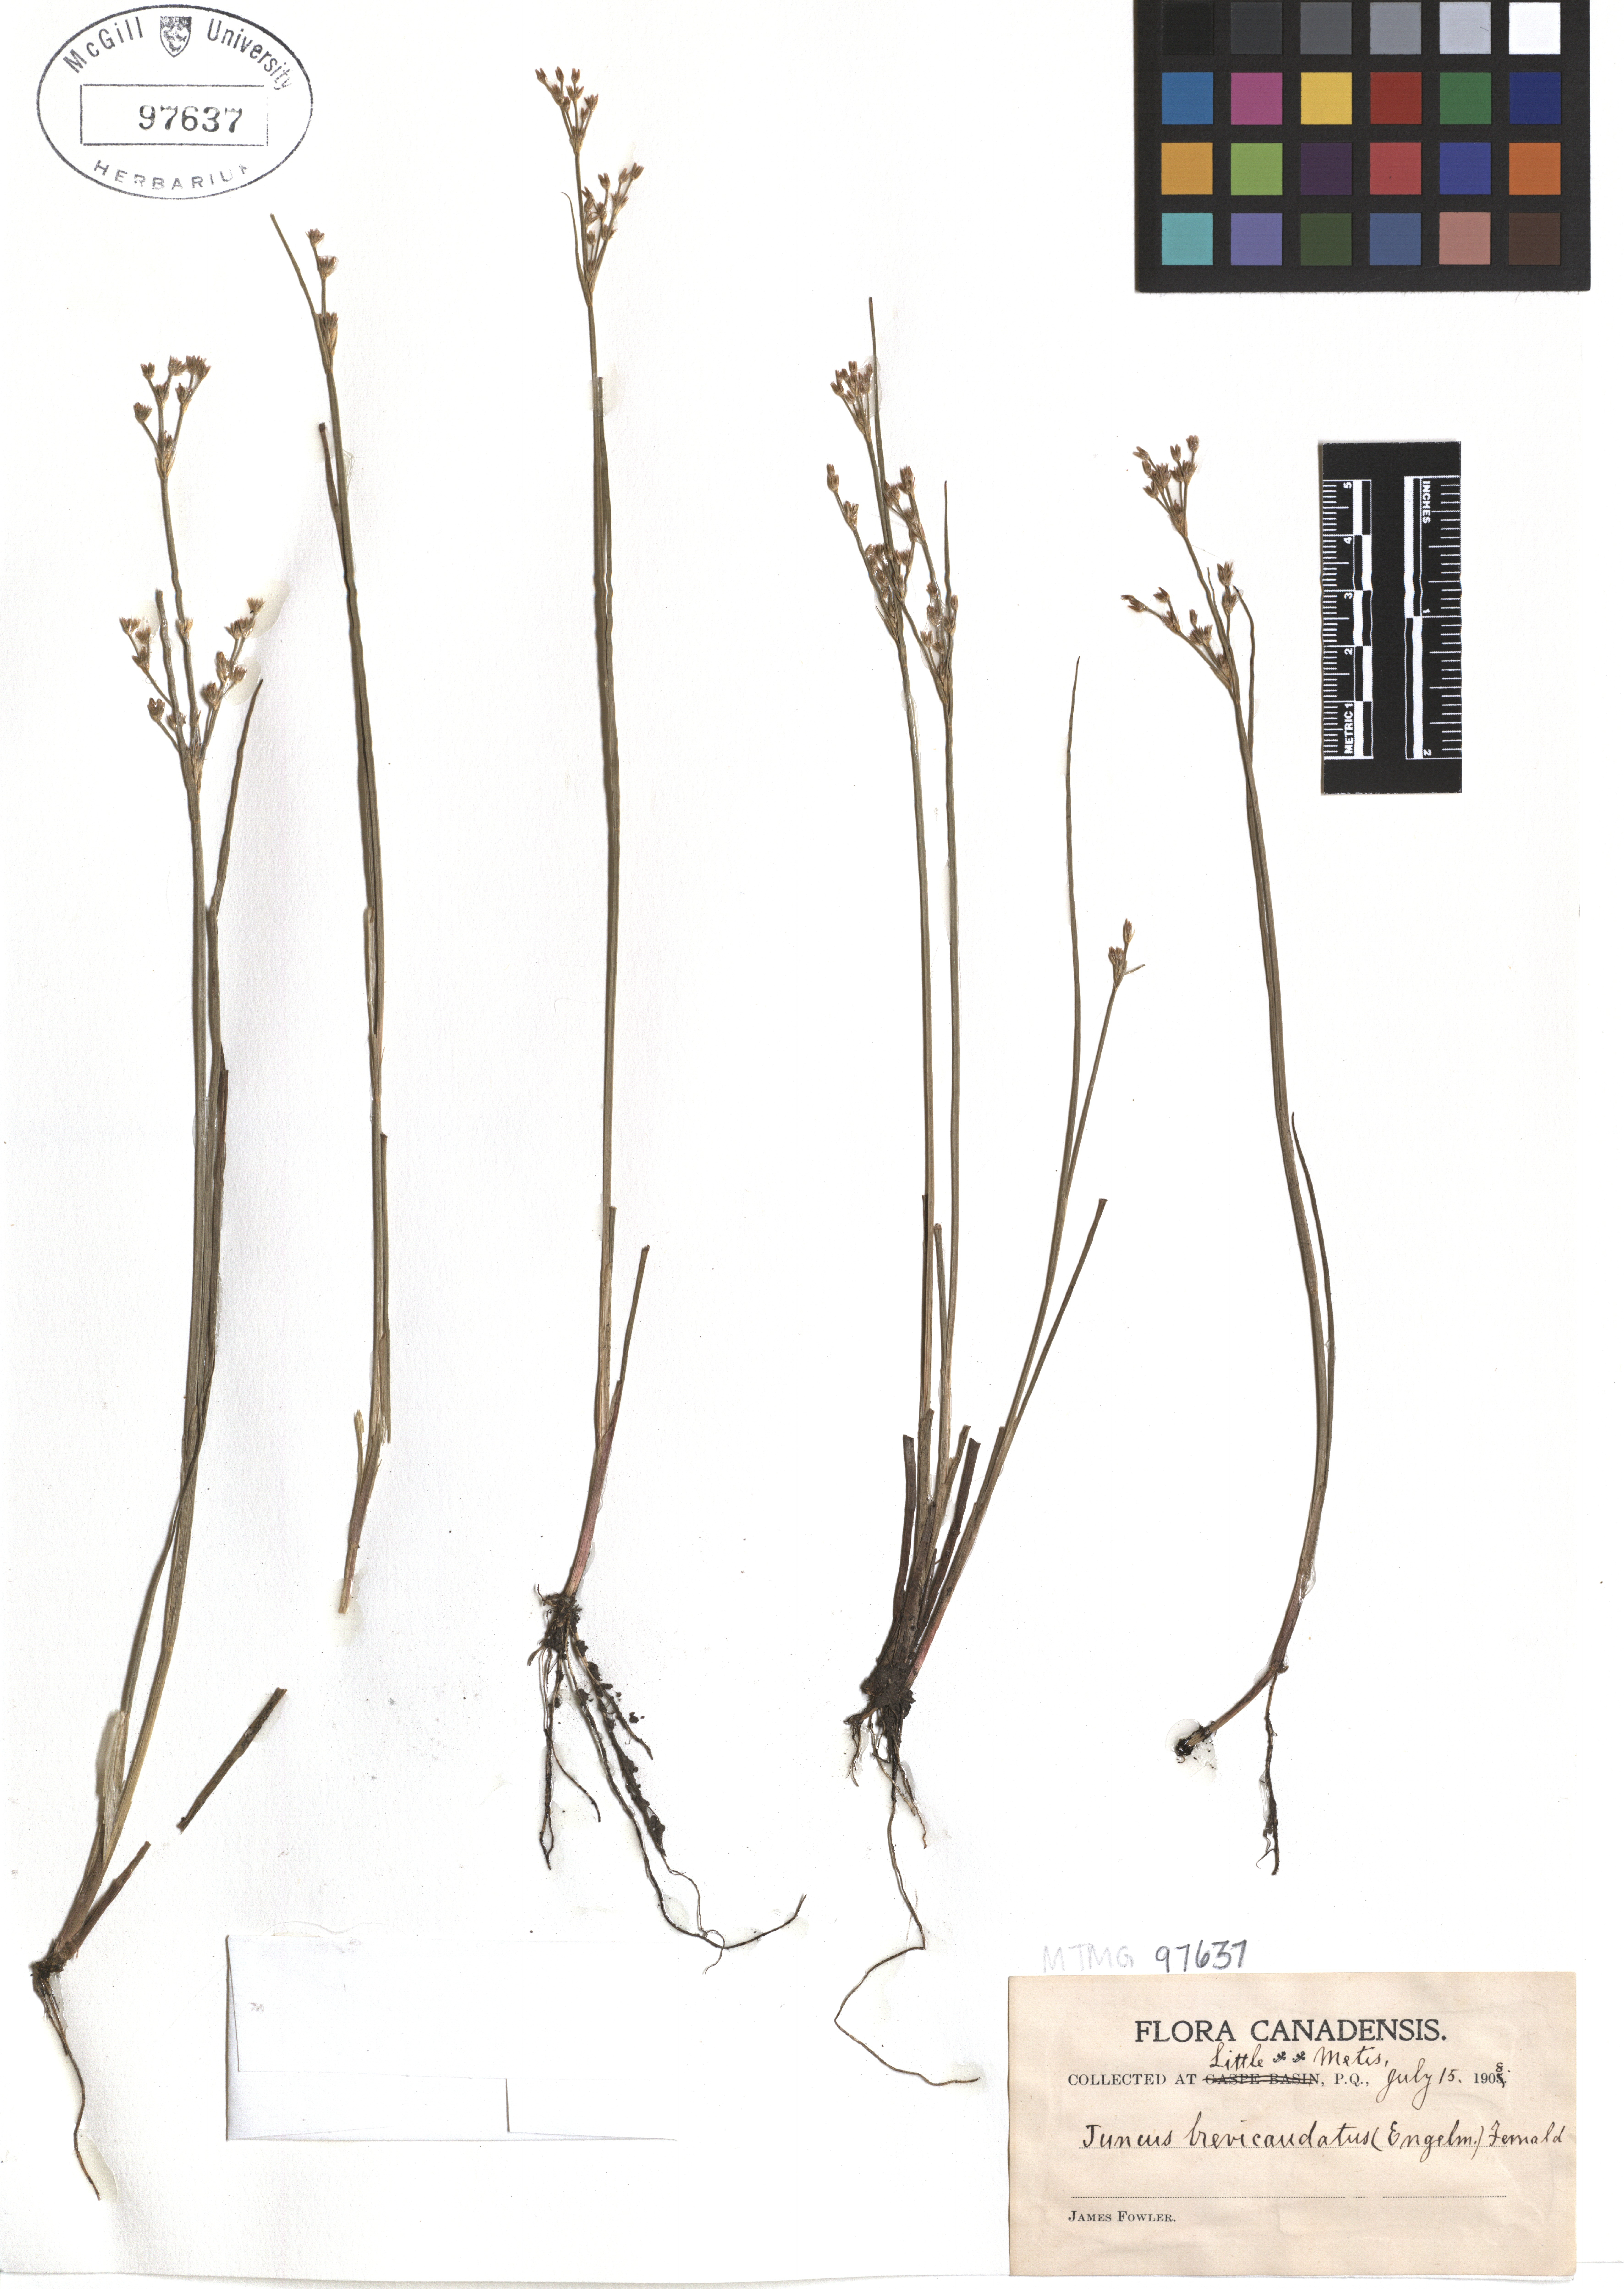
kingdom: Plantae
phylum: Tracheophyta
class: Liliopsida
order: Poales
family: Juncaceae
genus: Juncus
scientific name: Juncus brevicaudatus
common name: Narrow-panicle rush
